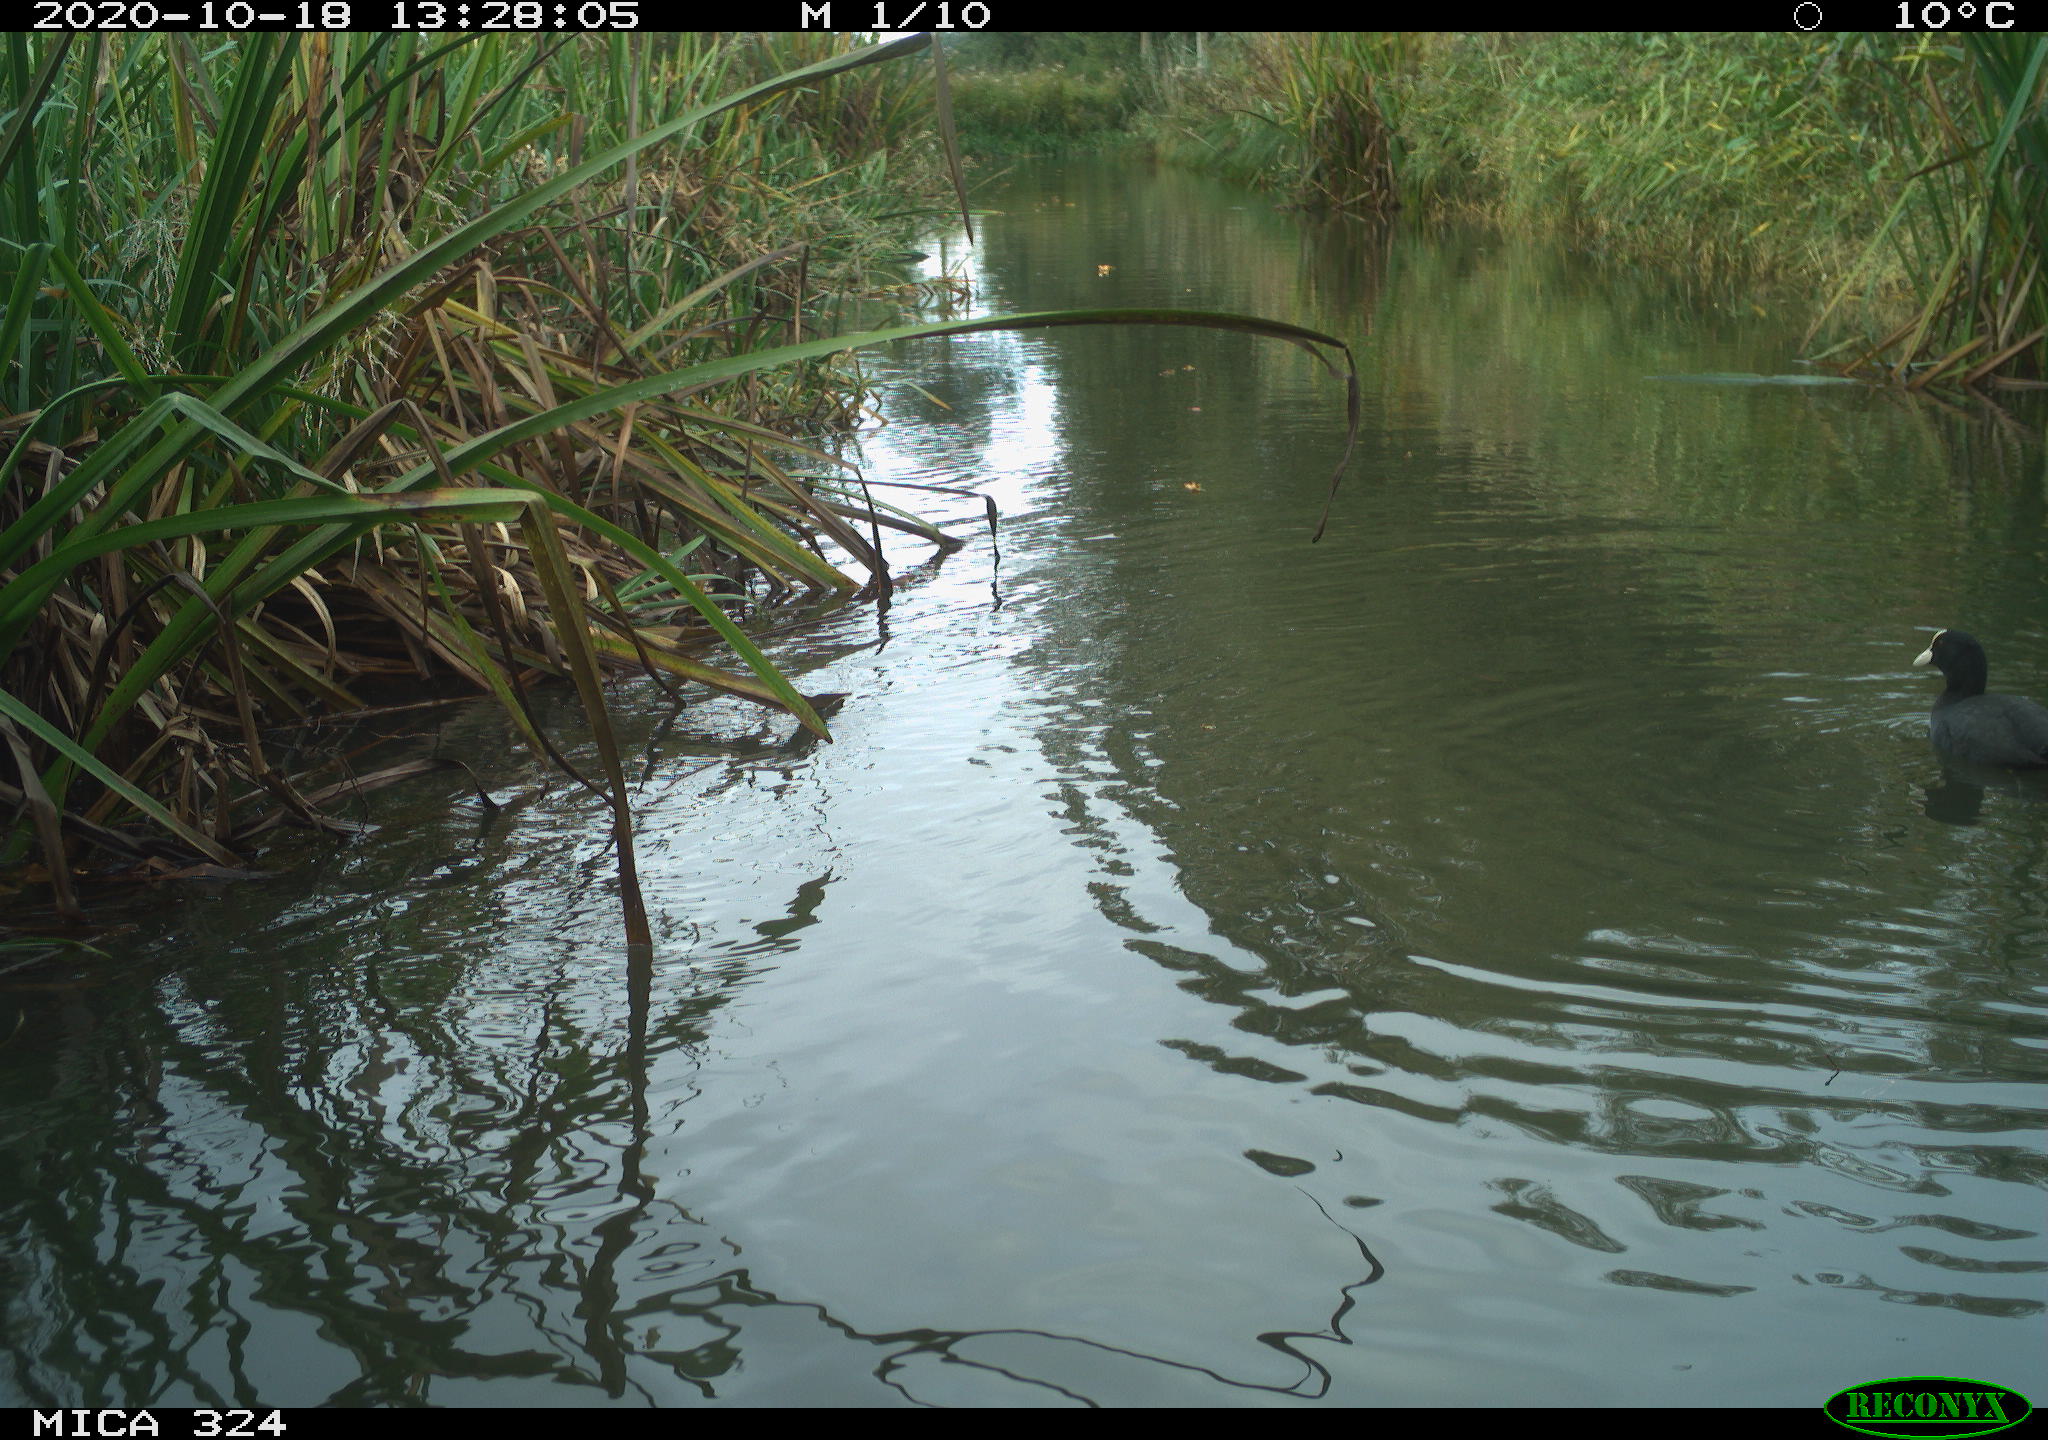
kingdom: Animalia
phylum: Chordata
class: Aves
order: Gruiformes
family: Rallidae
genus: Fulica
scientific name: Fulica atra
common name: Eurasian coot
